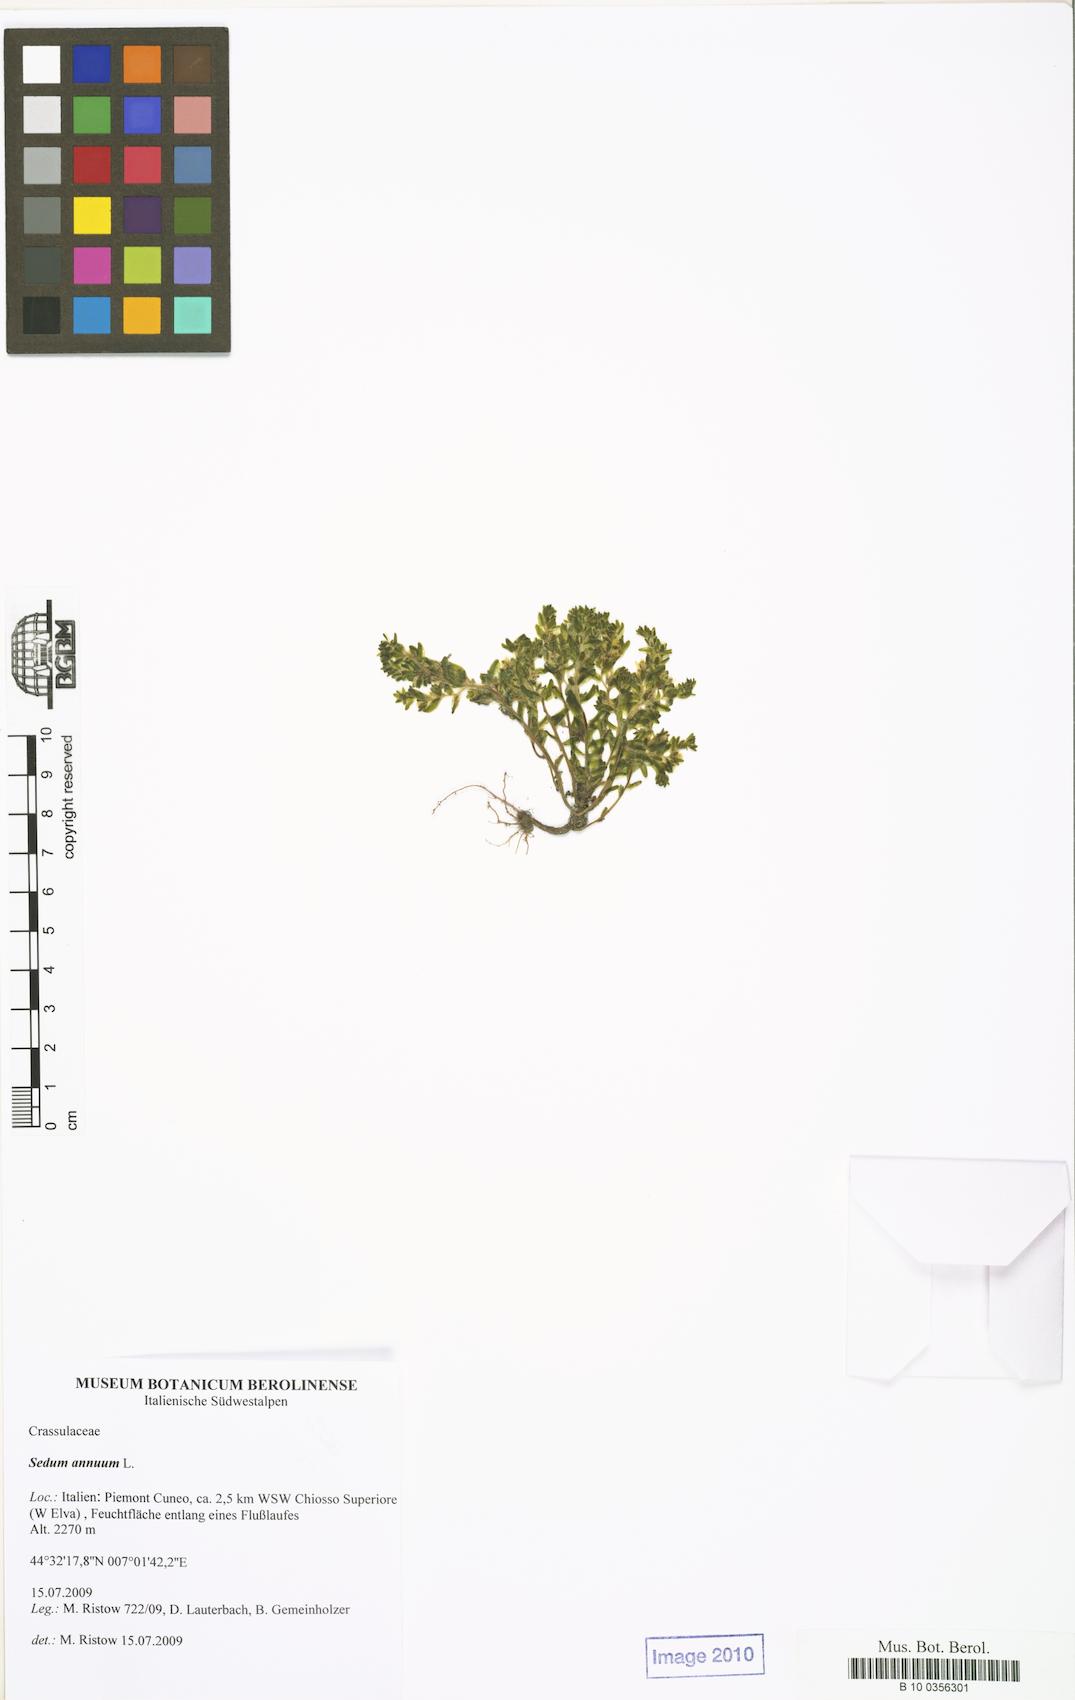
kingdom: Plantae
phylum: Tracheophyta
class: Magnoliopsida
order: Saxifragales
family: Crassulaceae
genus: Sedum
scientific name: Sedum annuum
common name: Annual stonecrop
